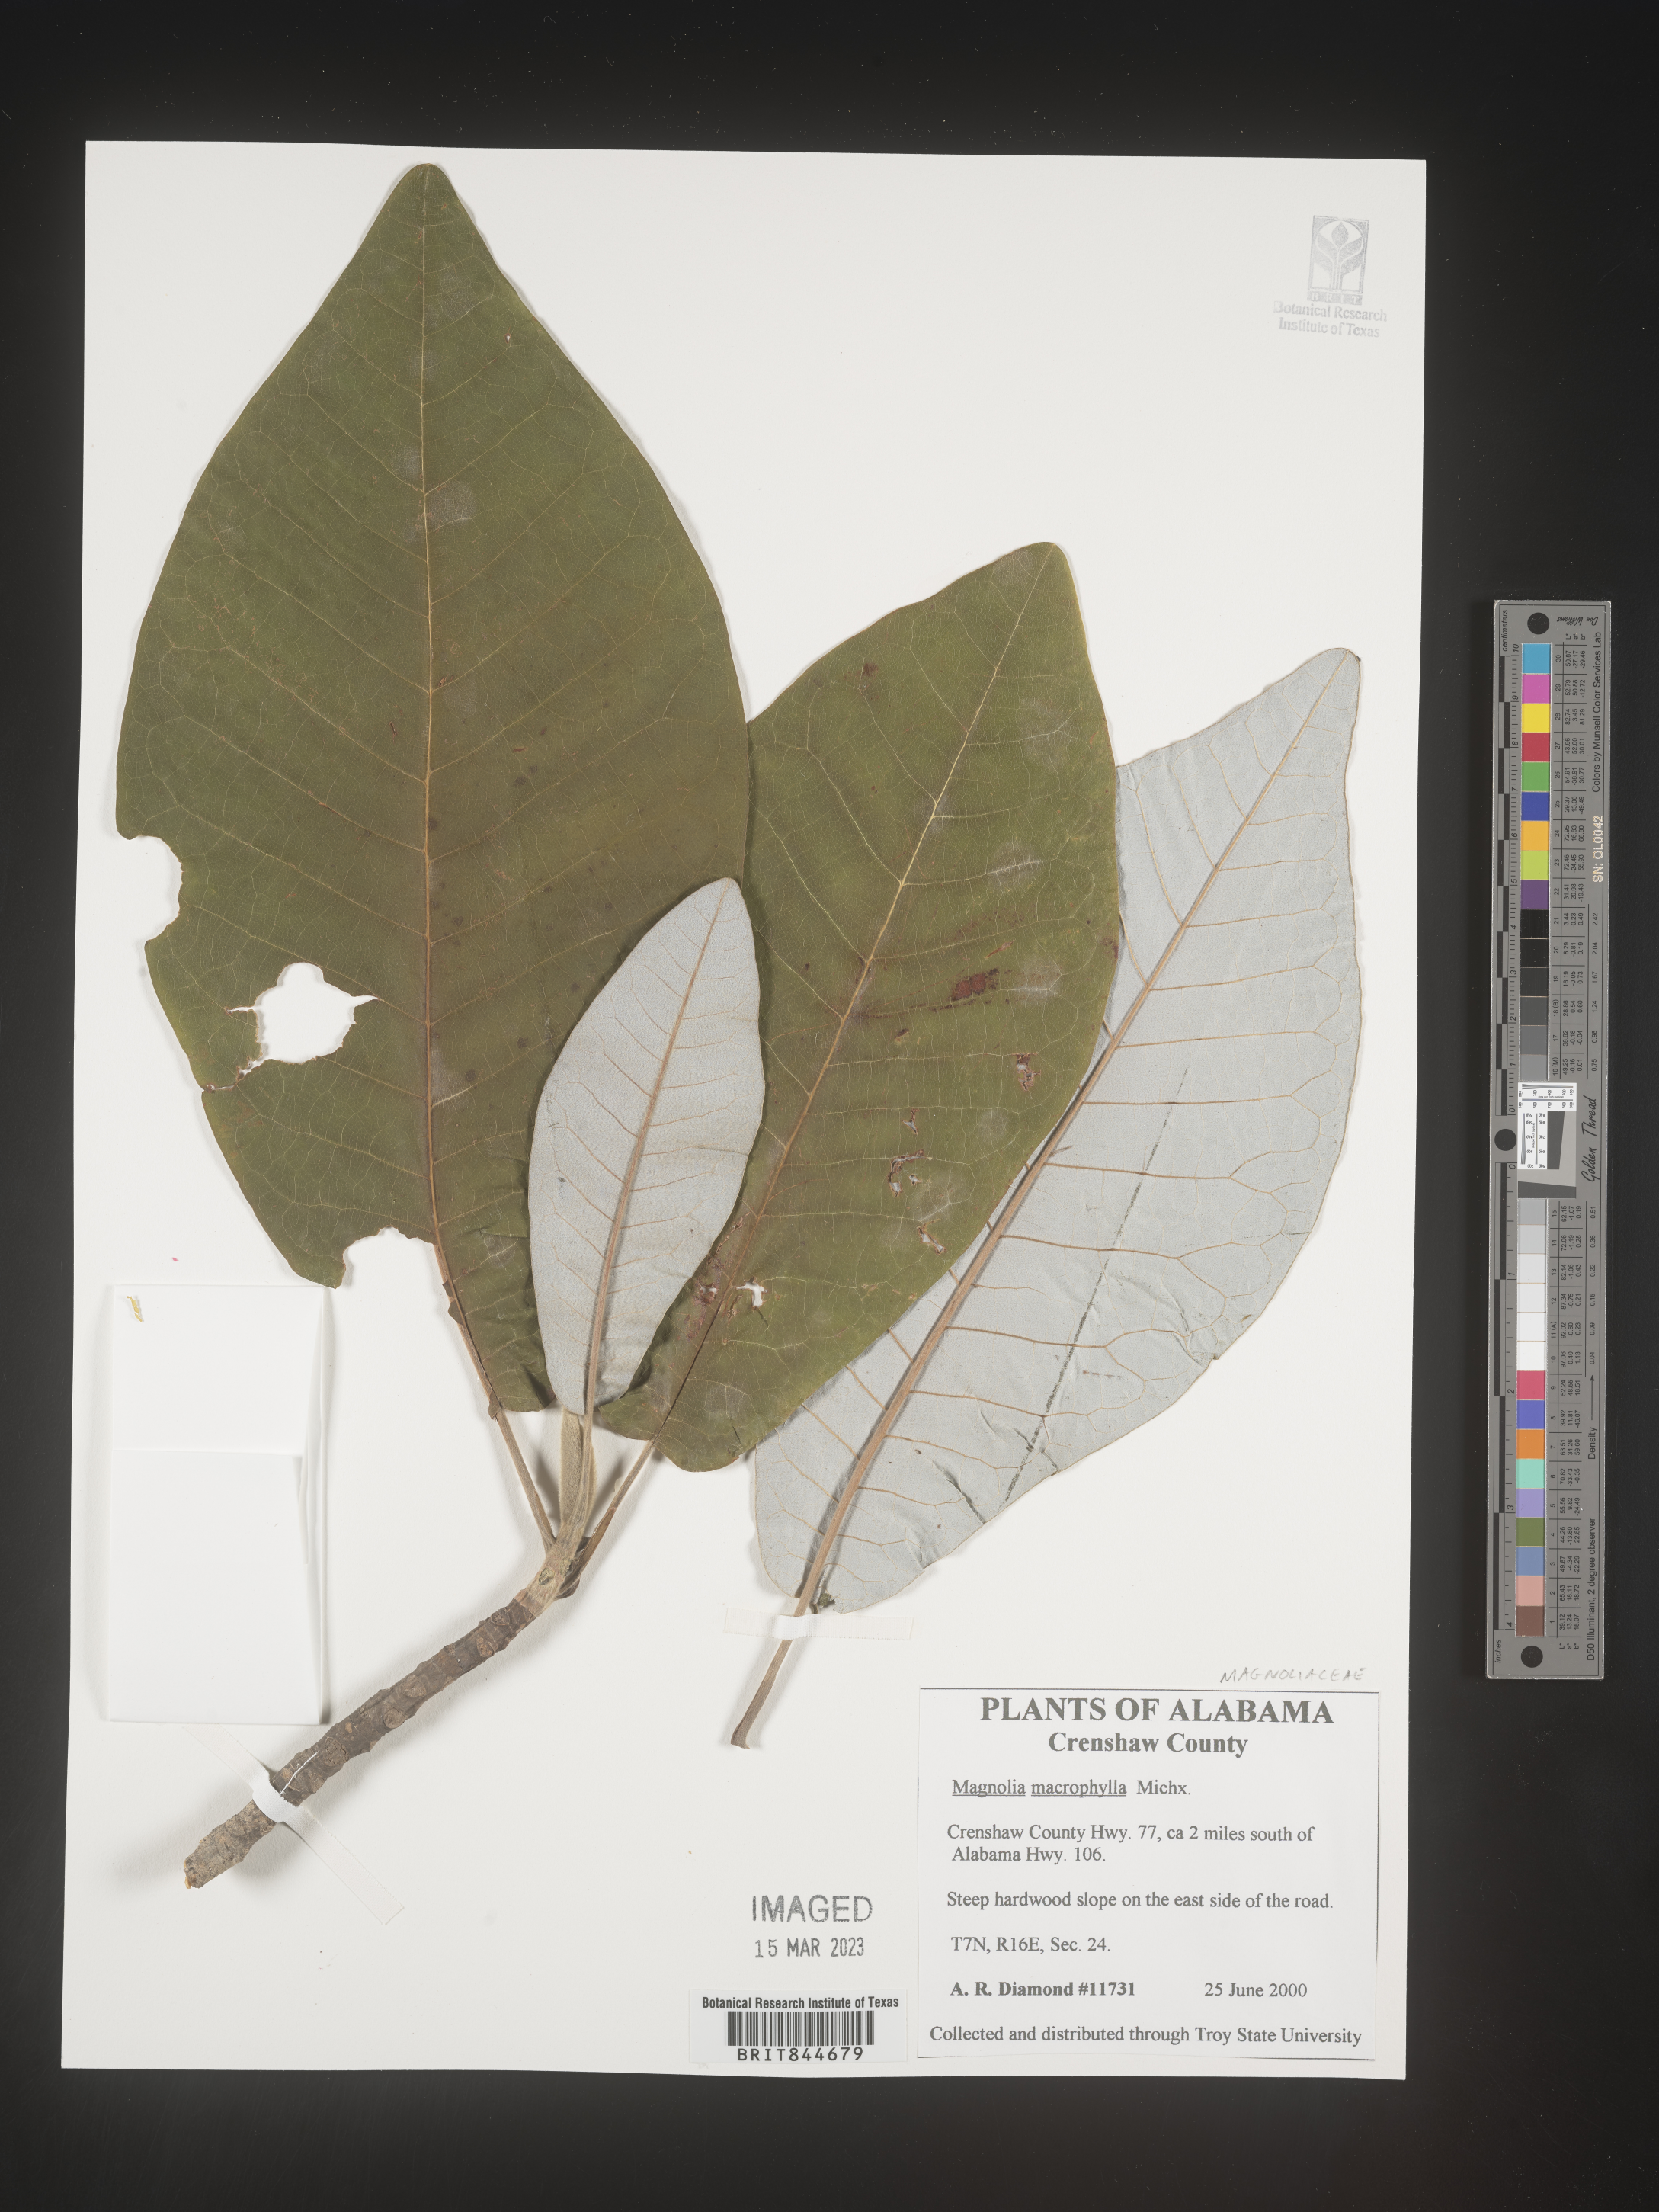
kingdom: Plantae
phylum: Tracheophyta
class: Magnoliopsida
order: Magnoliales
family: Magnoliaceae
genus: Magnolia
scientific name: Magnolia macrophylla
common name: Big-leaf magnolia
